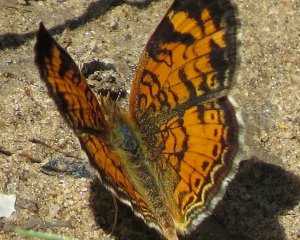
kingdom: Animalia
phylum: Arthropoda
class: Insecta
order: Lepidoptera
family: Nymphalidae
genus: Phyciodes
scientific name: Phyciodes tharos
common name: Northern Crescent
